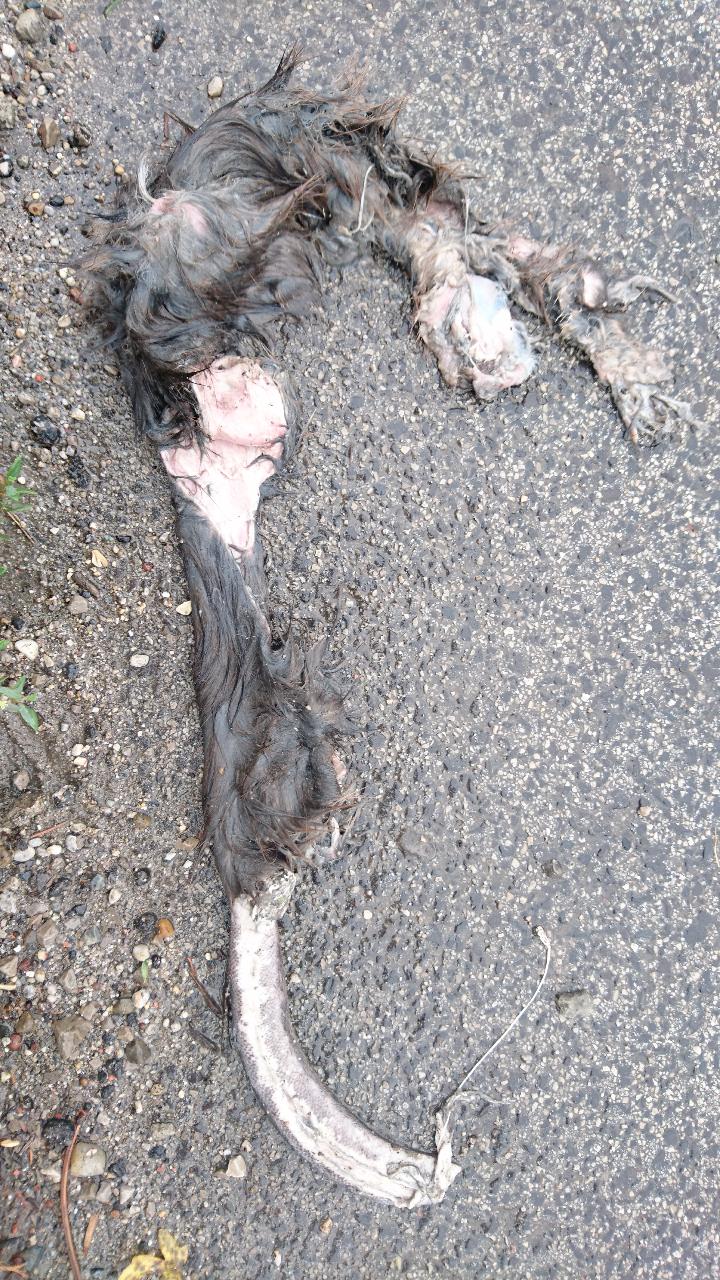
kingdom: Animalia
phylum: Chordata
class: Mammalia
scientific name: Mammalia
